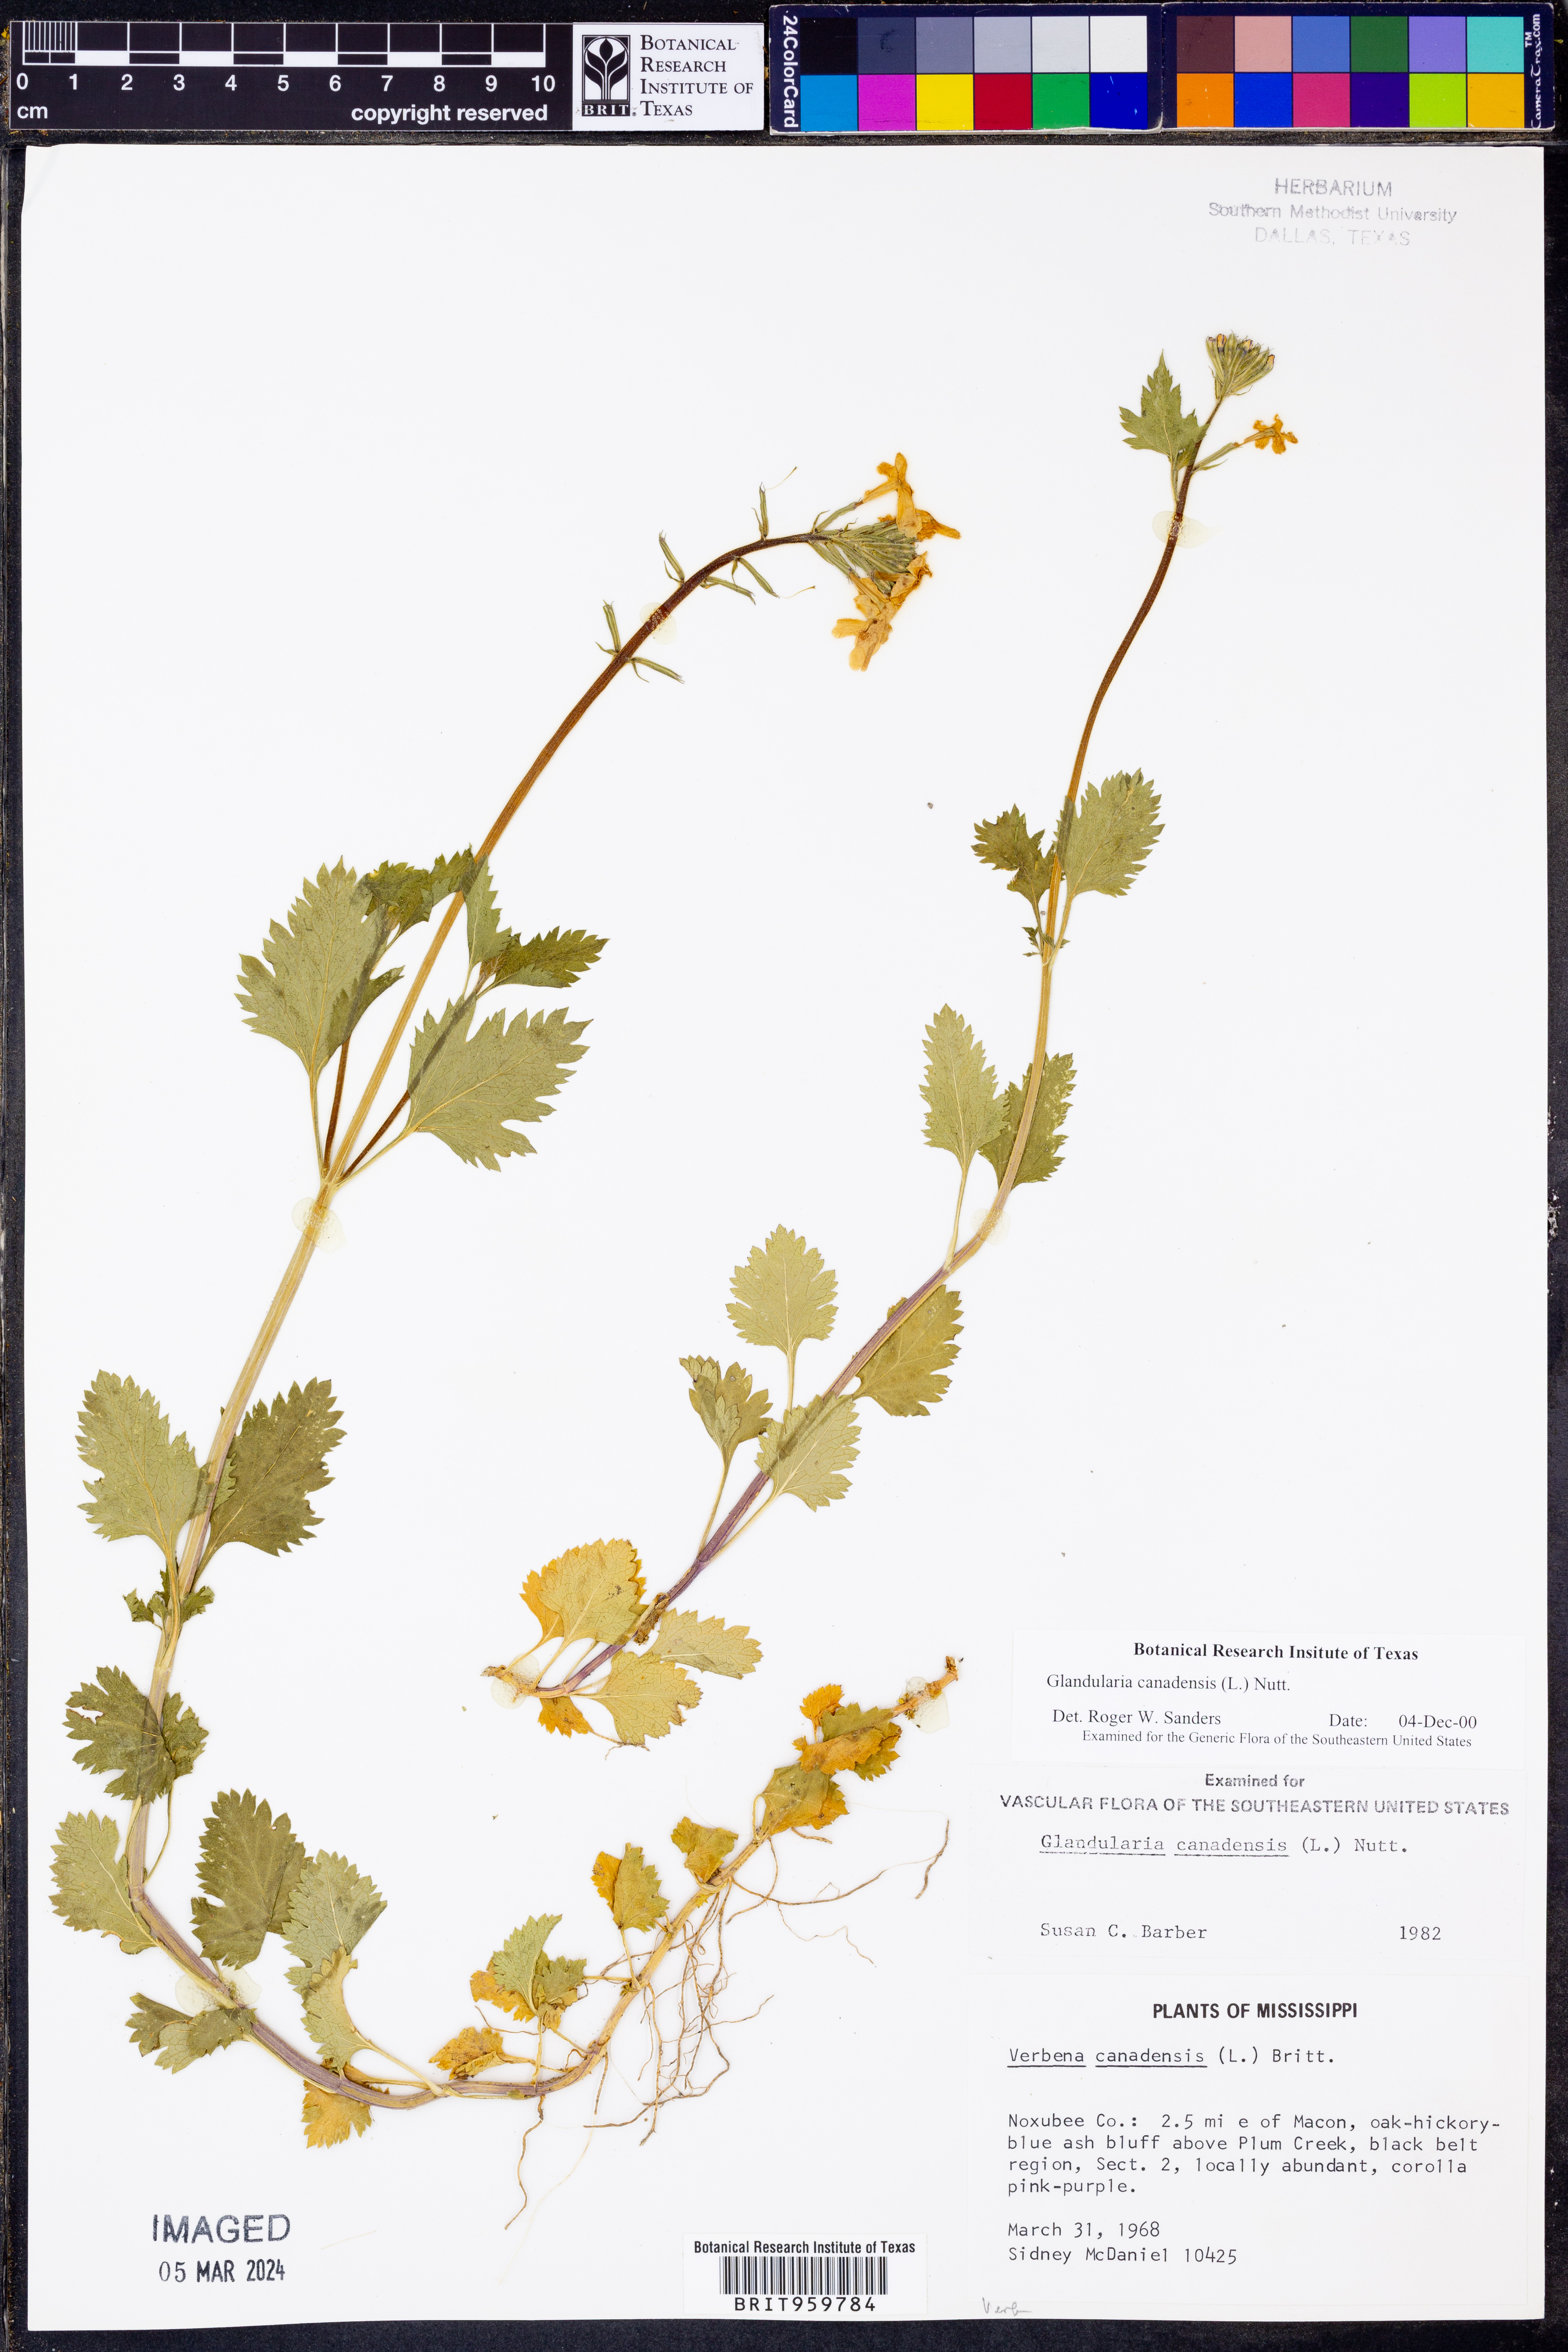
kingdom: Plantae
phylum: Tracheophyta
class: Magnoliopsida
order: Lamiales
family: Verbenaceae
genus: Verbena
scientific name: Verbena canadensis
